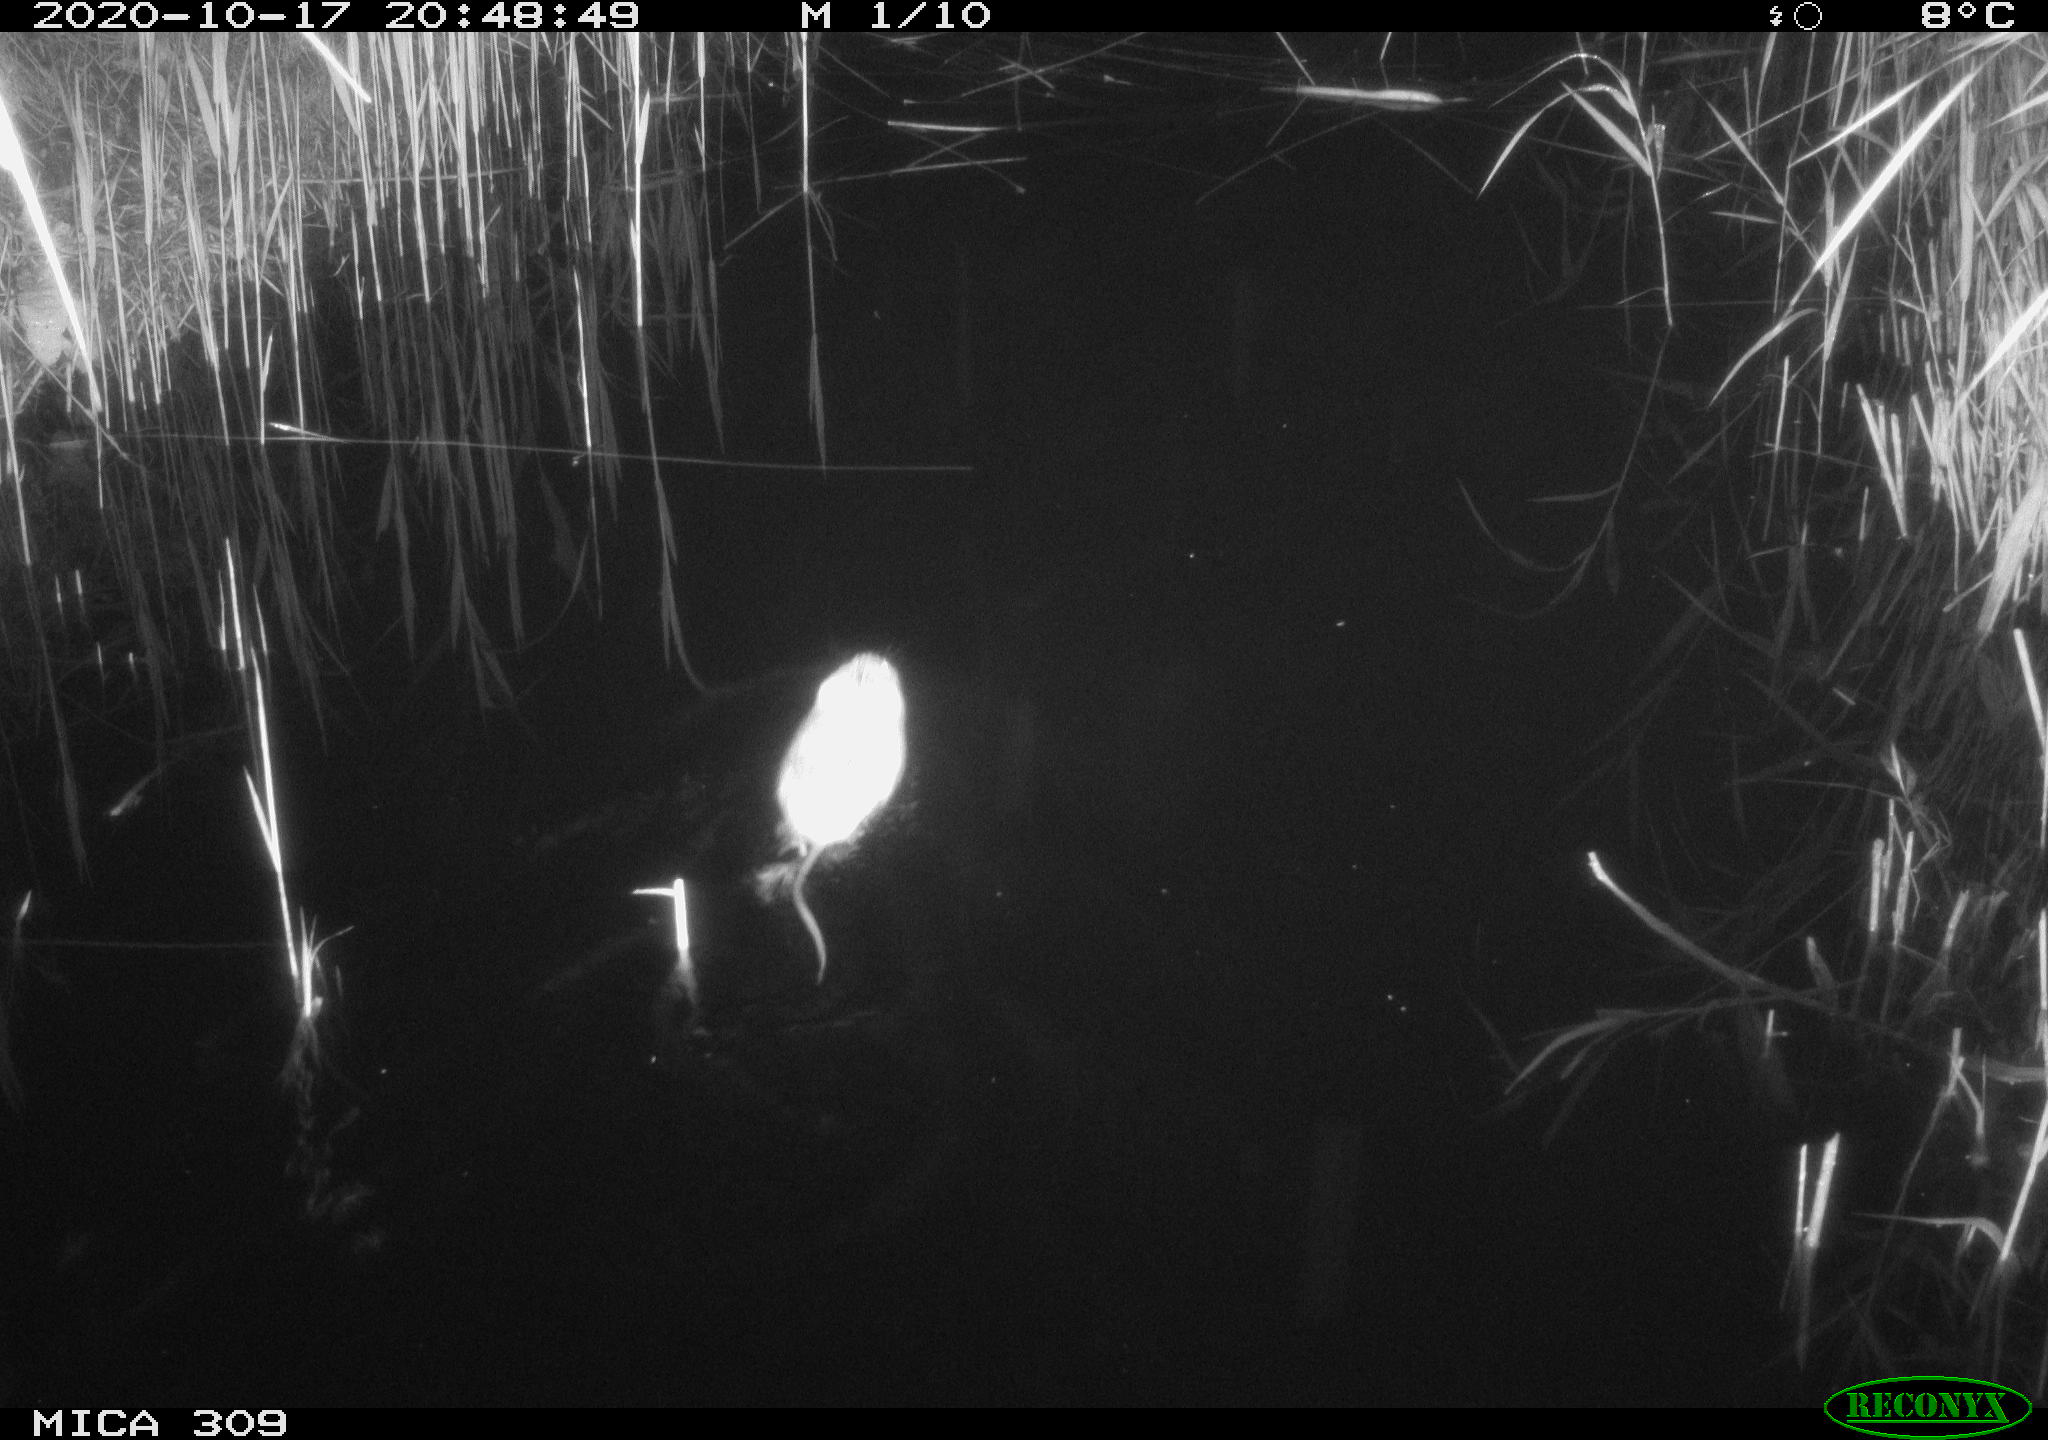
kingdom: Animalia
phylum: Chordata
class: Mammalia
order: Rodentia
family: Muridae
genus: Rattus
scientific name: Rattus norvegicus
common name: Brown rat
